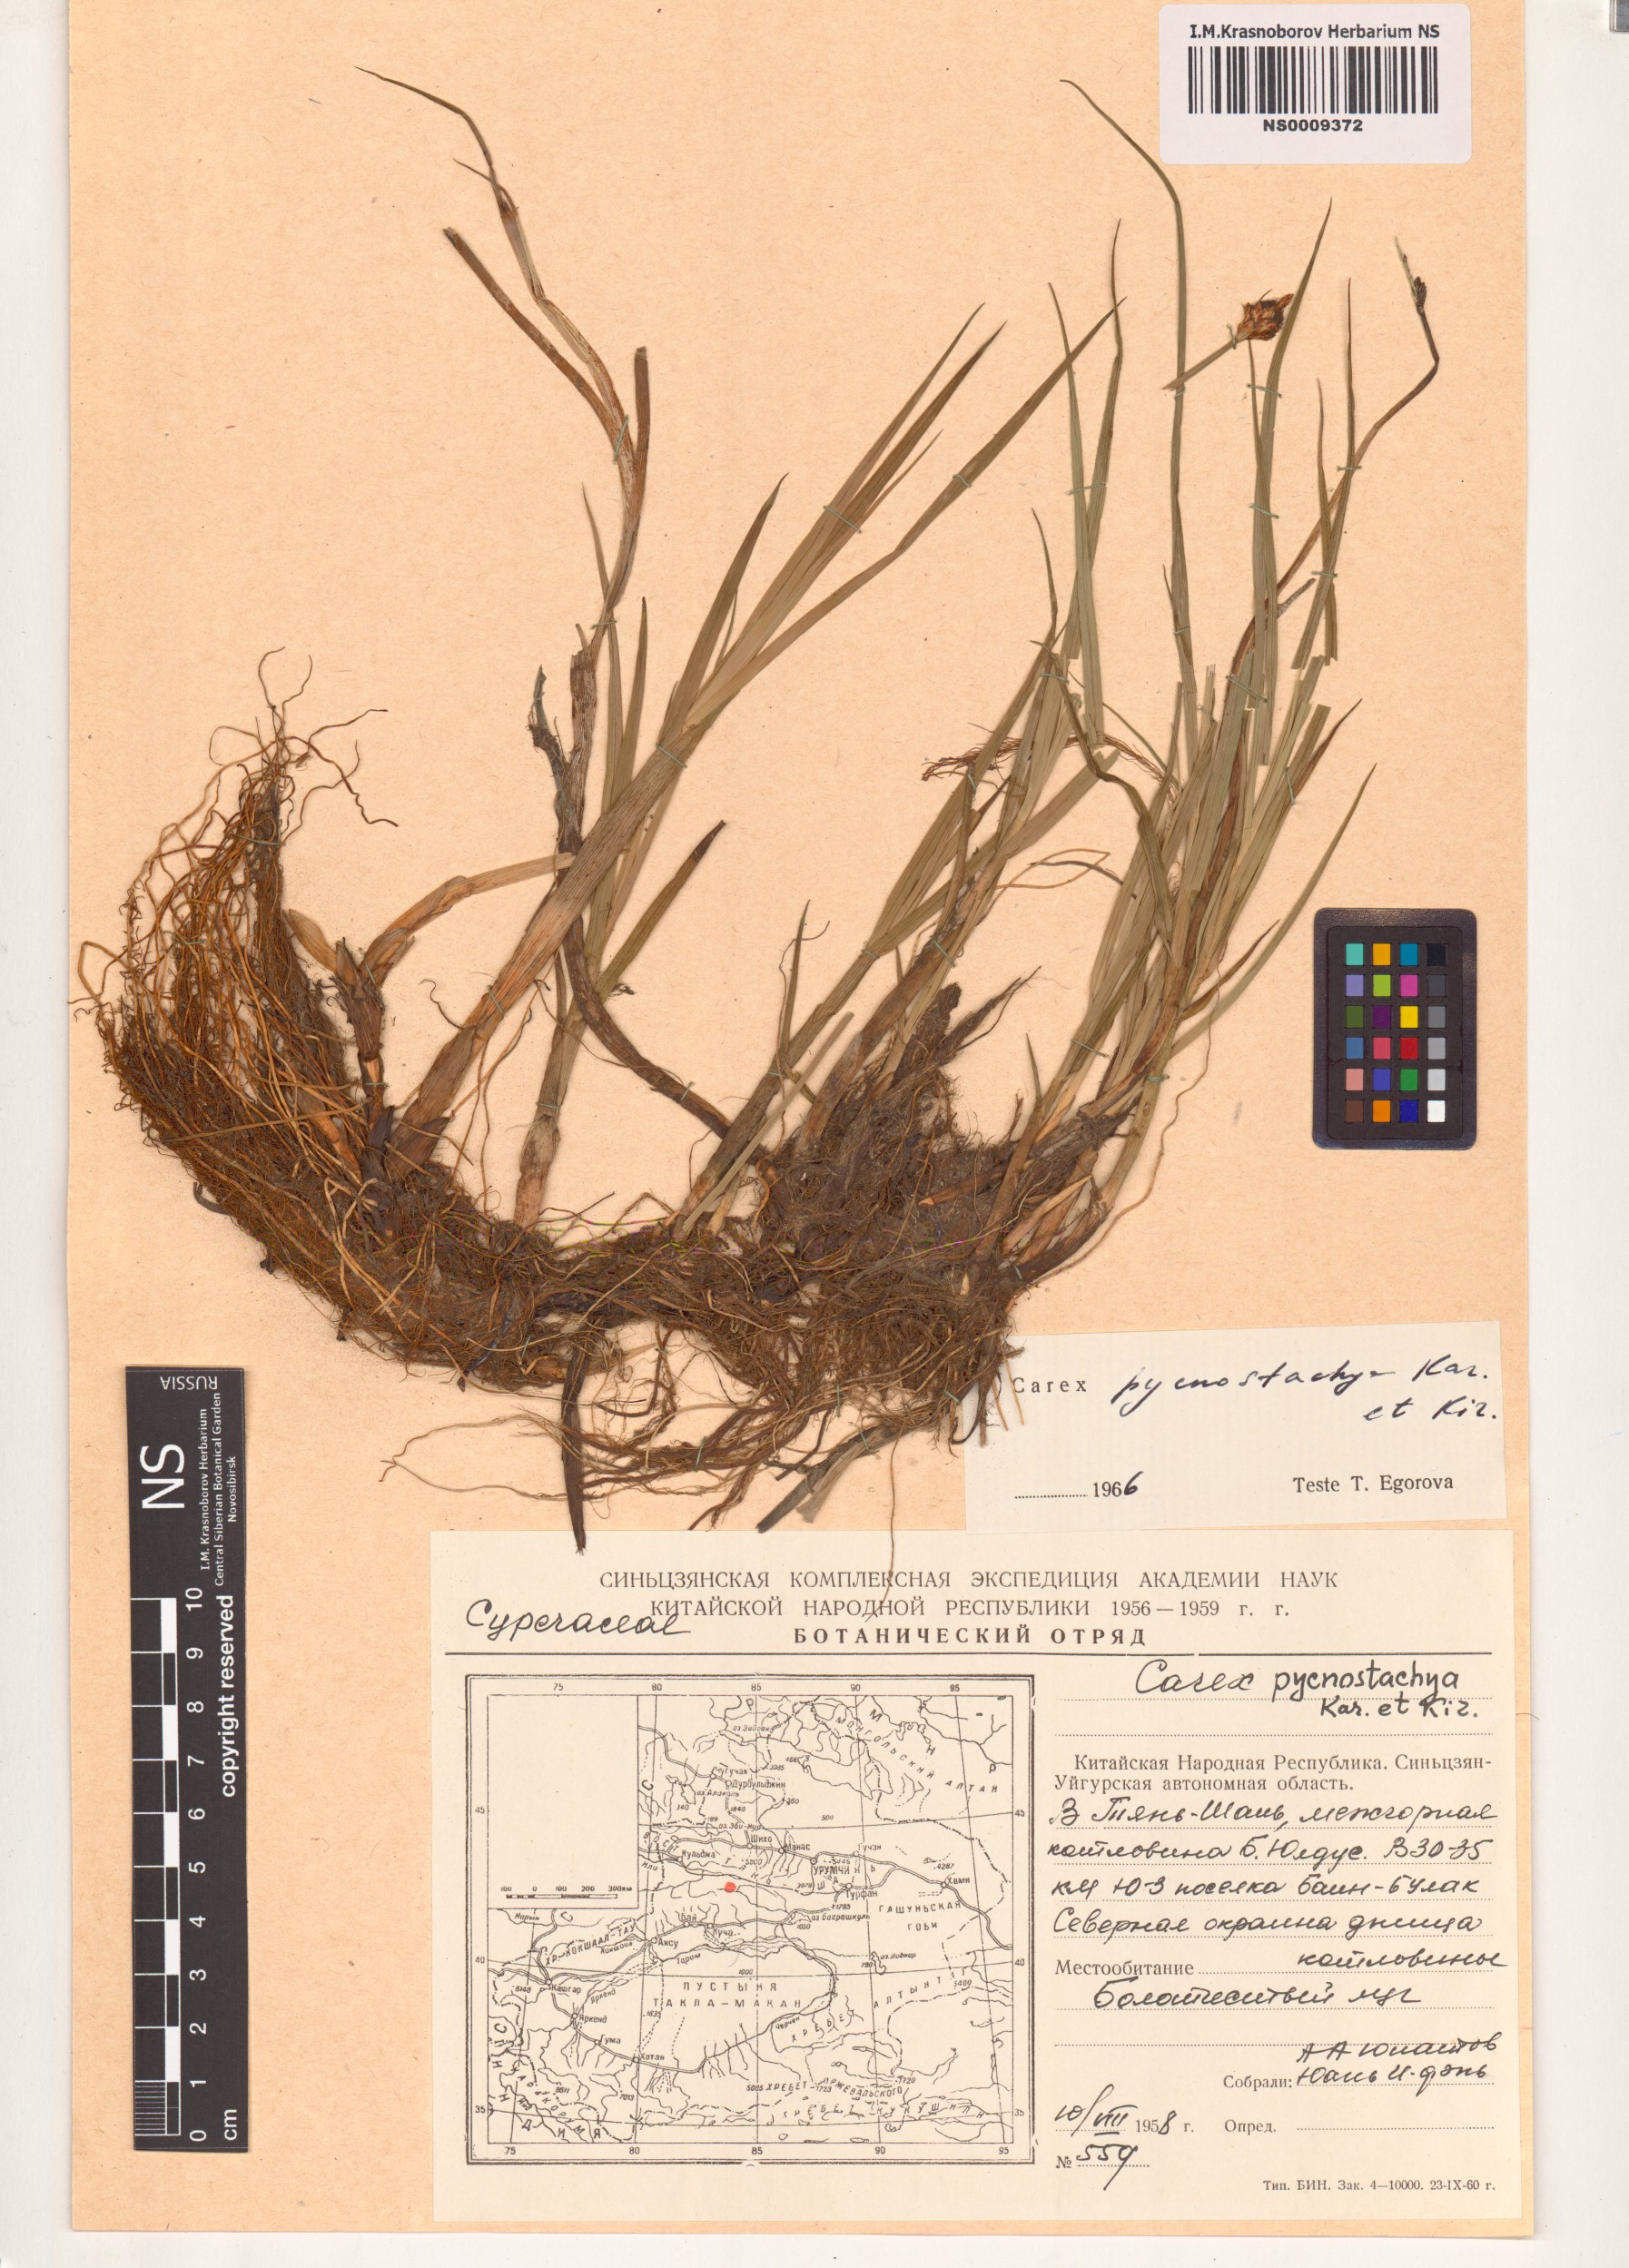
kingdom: Plantae
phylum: Tracheophyta
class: Liliopsida
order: Poales
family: Cyperaceae
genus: Carex
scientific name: Carex pycnostachya
